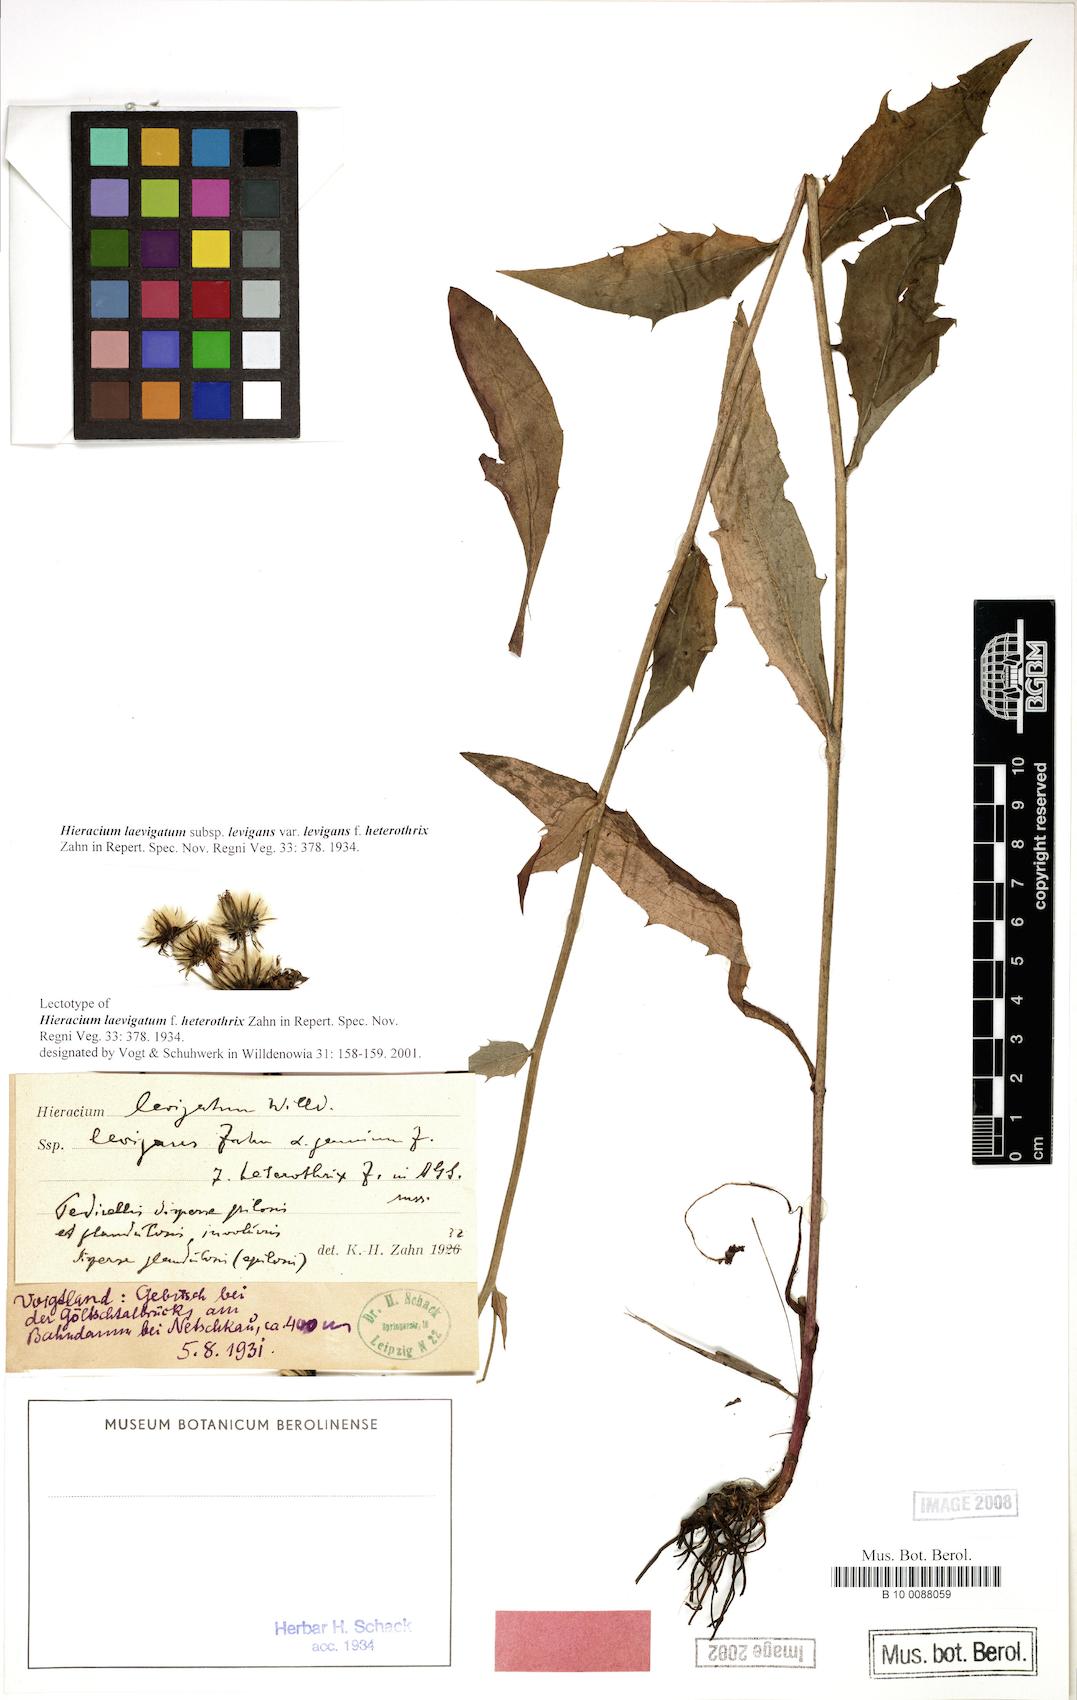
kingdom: Plantae
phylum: Tracheophyta
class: Magnoliopsida
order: Asterales
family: Asteraceae
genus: Hieracium
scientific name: Hieracium laevigatum
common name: Smooth hawkweed
